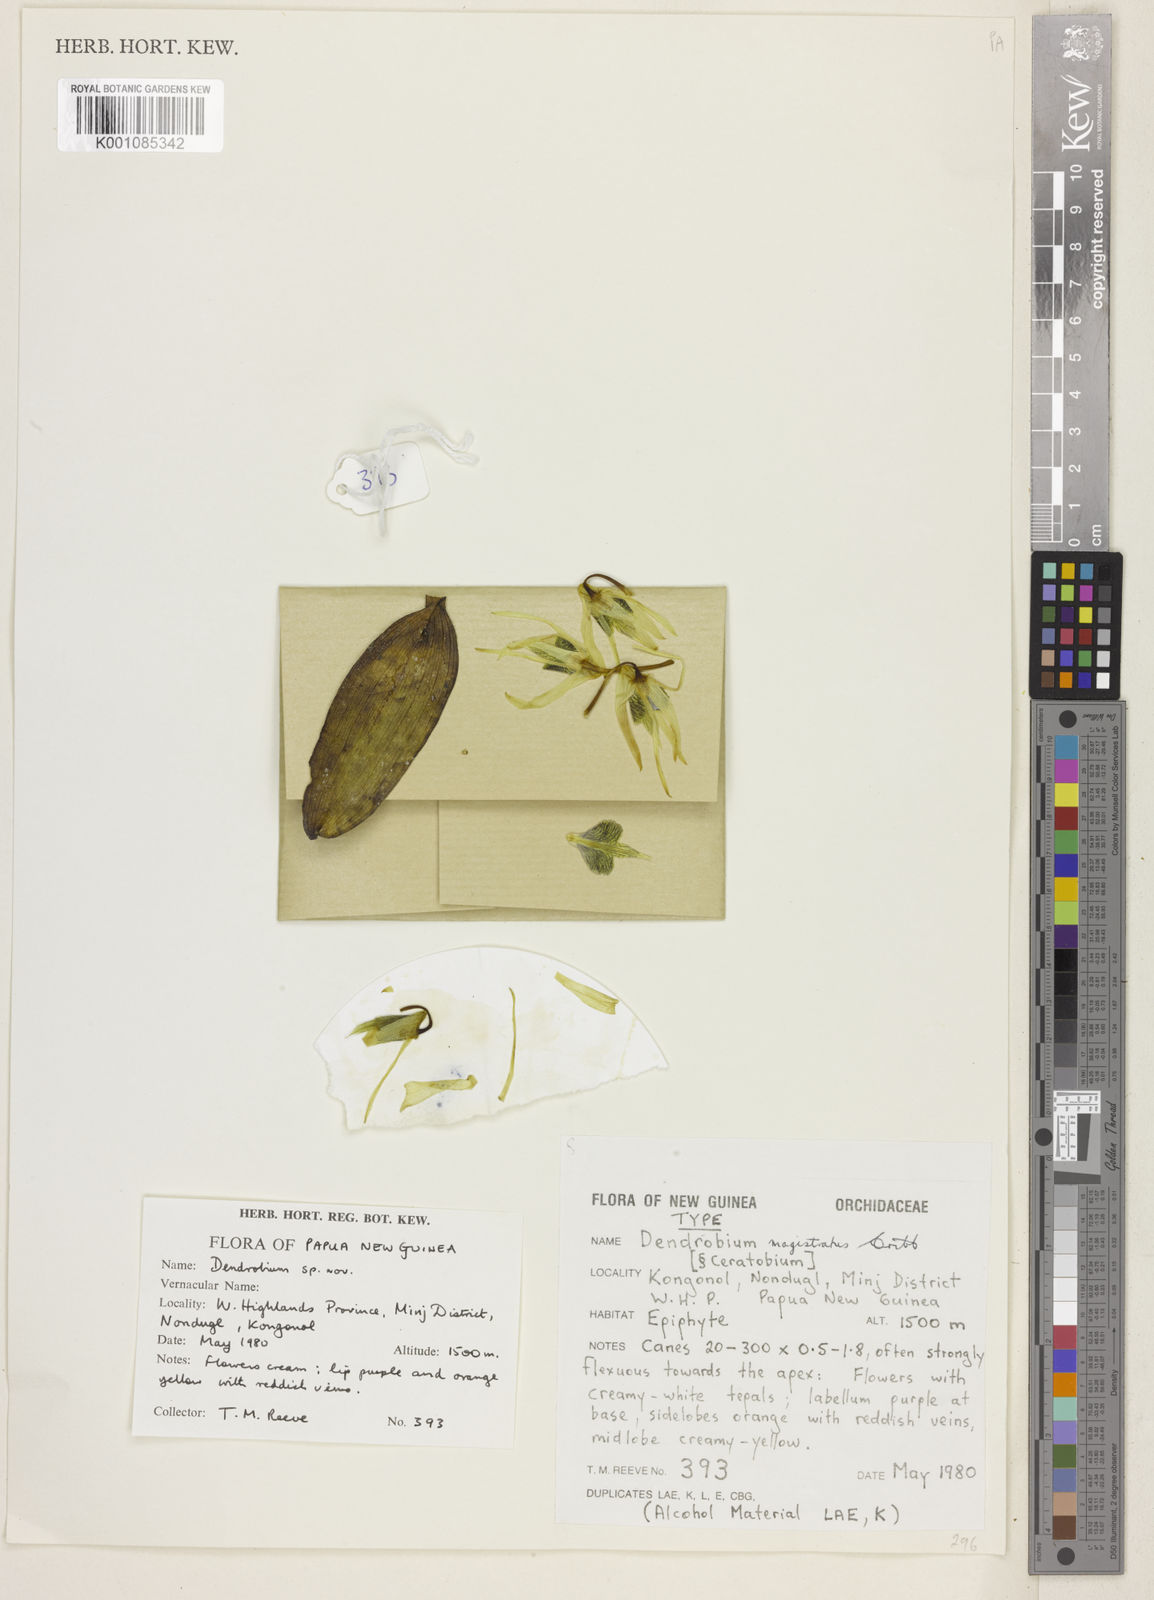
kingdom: Plantae
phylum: Tracheophyta
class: Liliopsida
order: Asparagales
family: Orchidaceae
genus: Dendrobium
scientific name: Dendrobium
